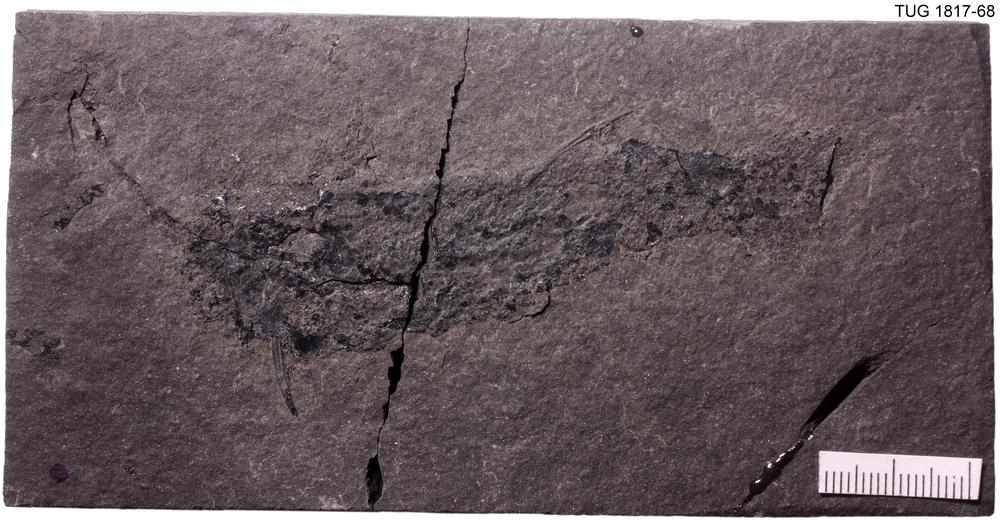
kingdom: Animalia
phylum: Chordata
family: Diplacanthidae
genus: Diplacanthus
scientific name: Diplacanthus crassisimus
